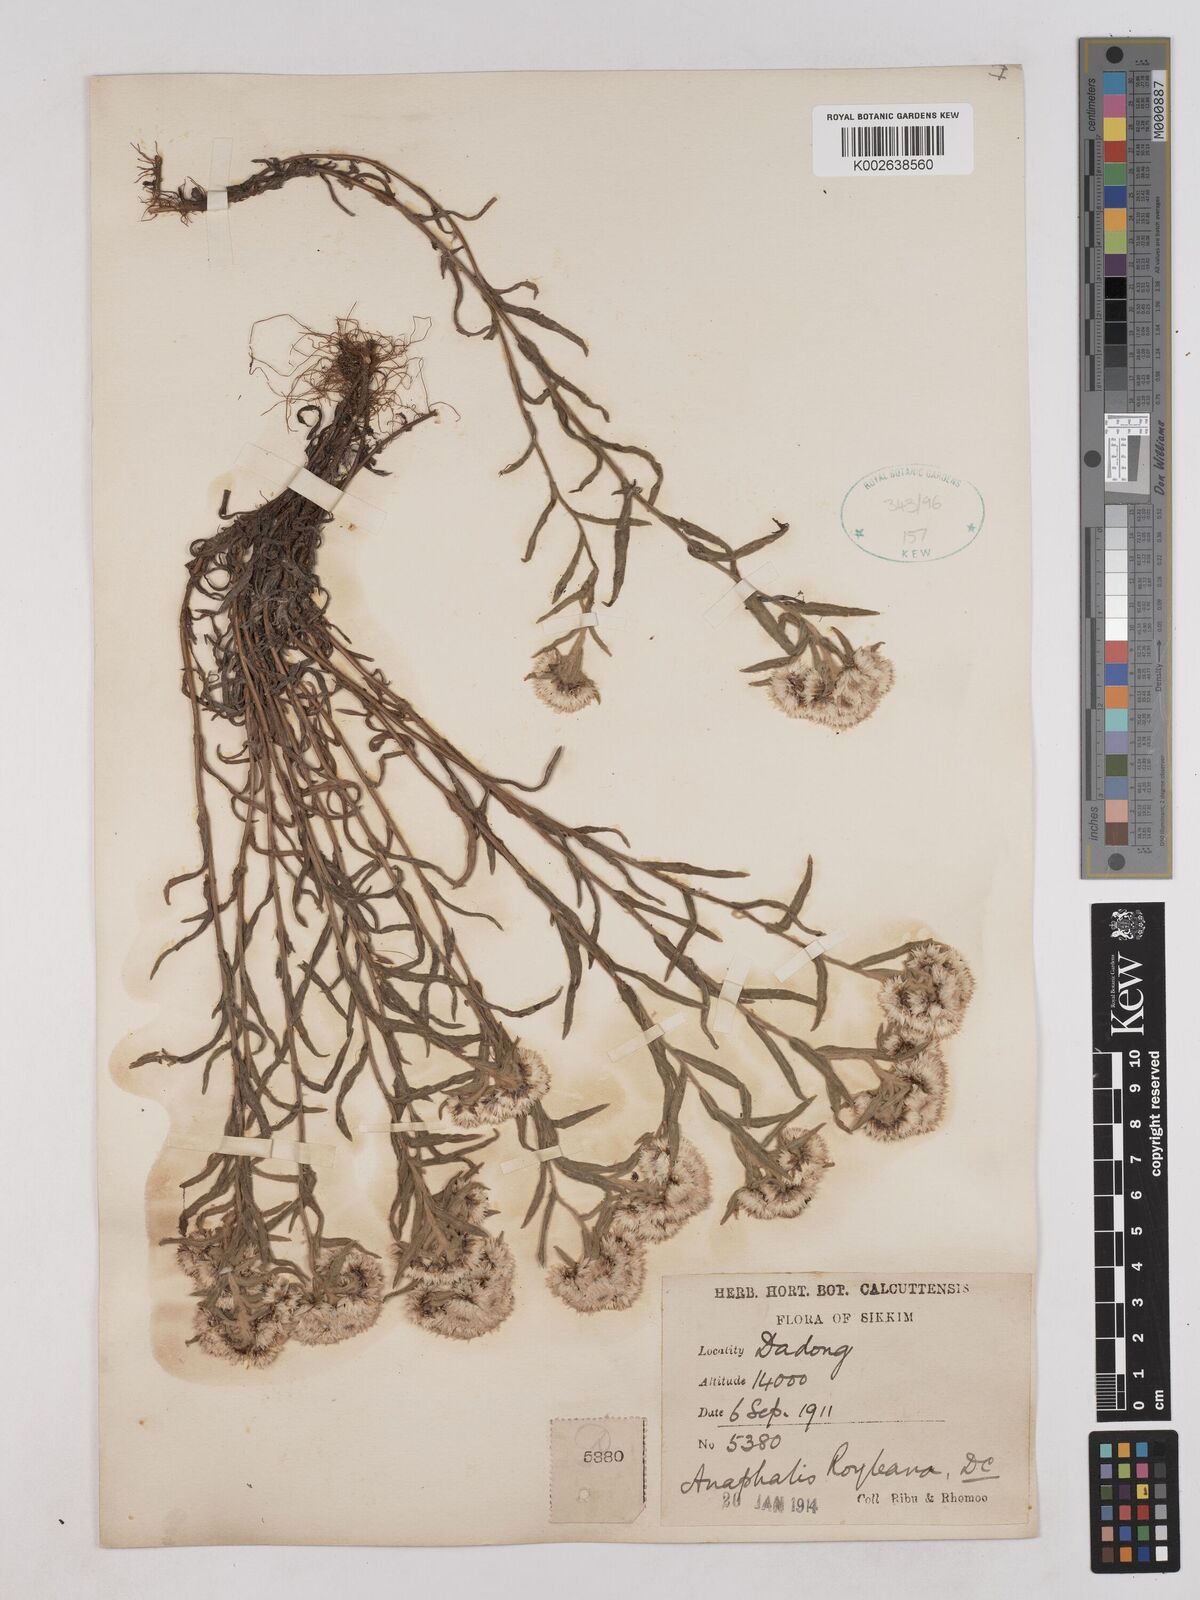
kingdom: Plantae
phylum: Tracheophyta
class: Magnoliopsida
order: Asterales
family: Asteraceae
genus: Anaphalis
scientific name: Anaphalis royleana
